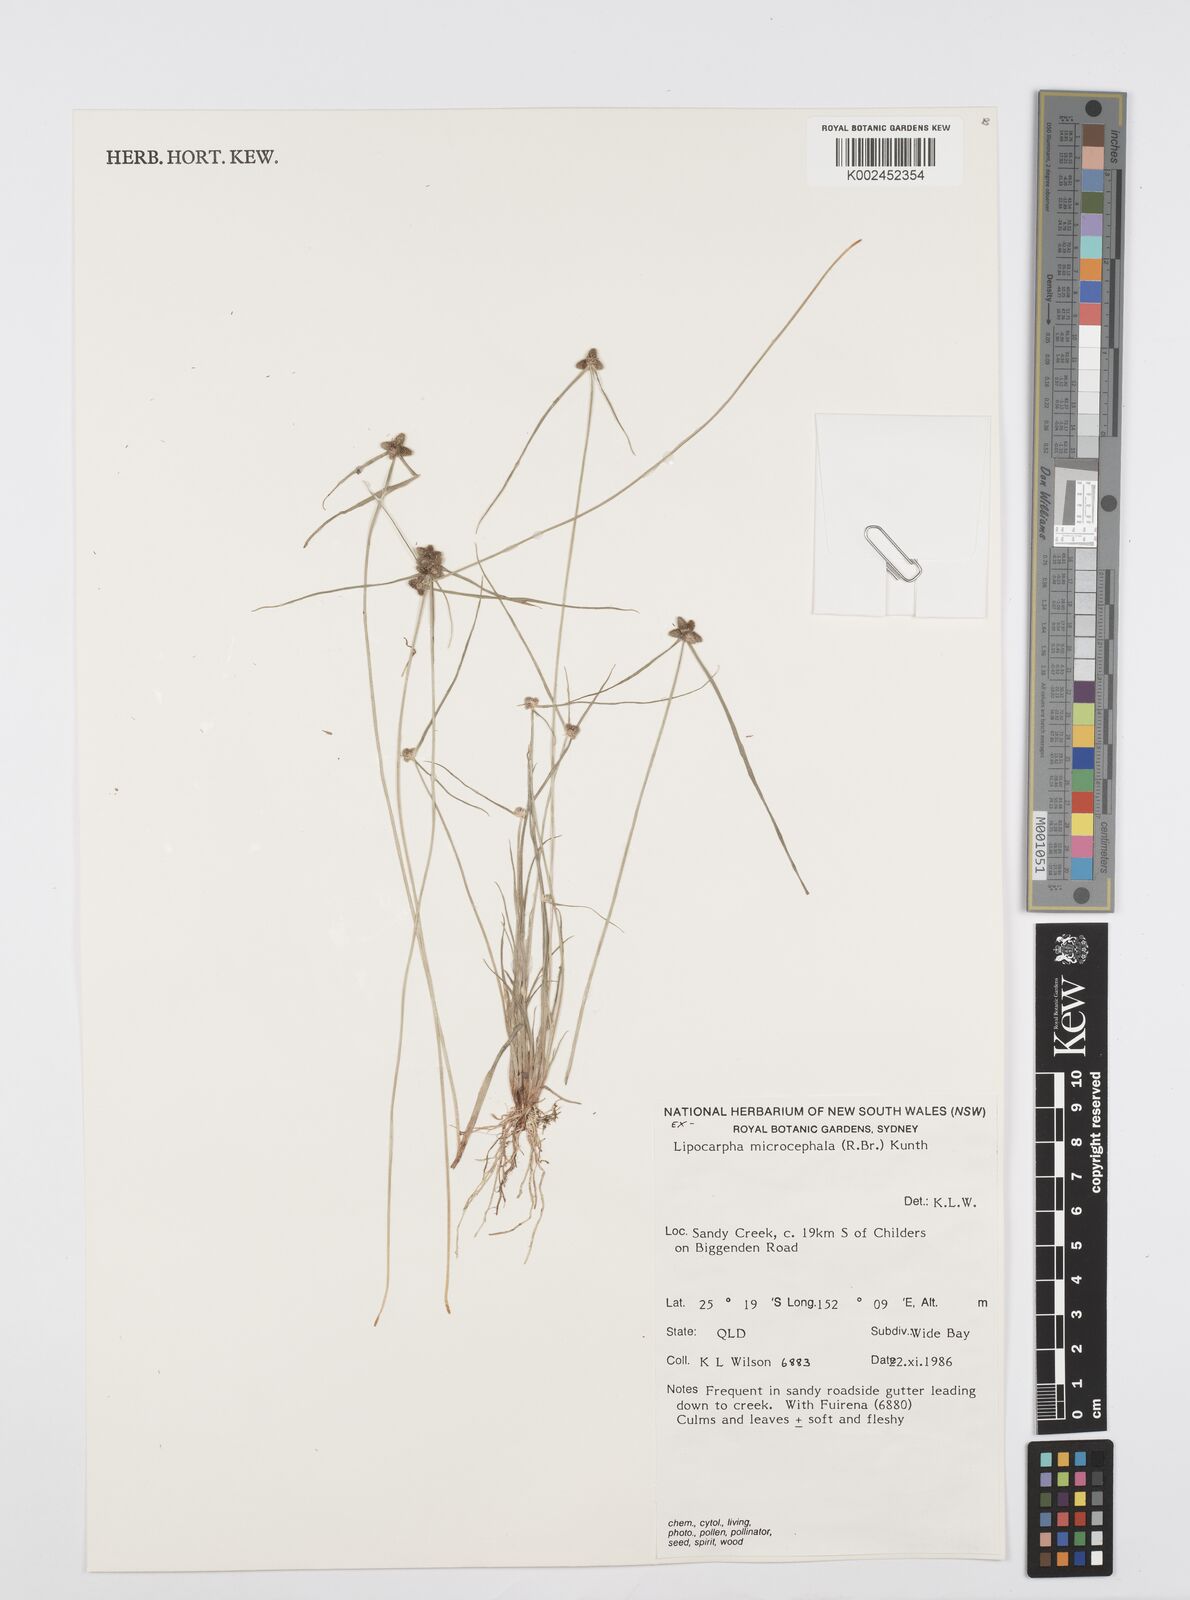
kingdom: Plantae
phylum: Tracheophyta
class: Liliopsida
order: Poales
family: Cyperaceae
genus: Cyperus
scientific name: Cyperus microcephalus
